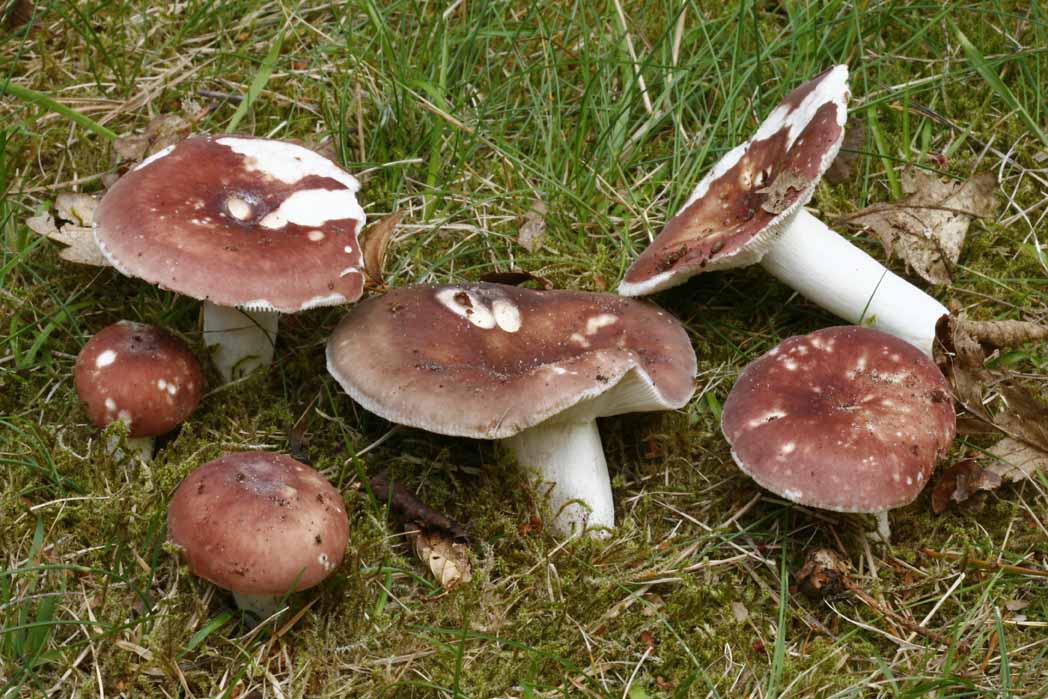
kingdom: Fungi
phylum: Basidiomycota
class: Agaricomycetes
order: Russulales
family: Russulaceae
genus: Russula
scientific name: Russula vesca
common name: spiselig skørhat
